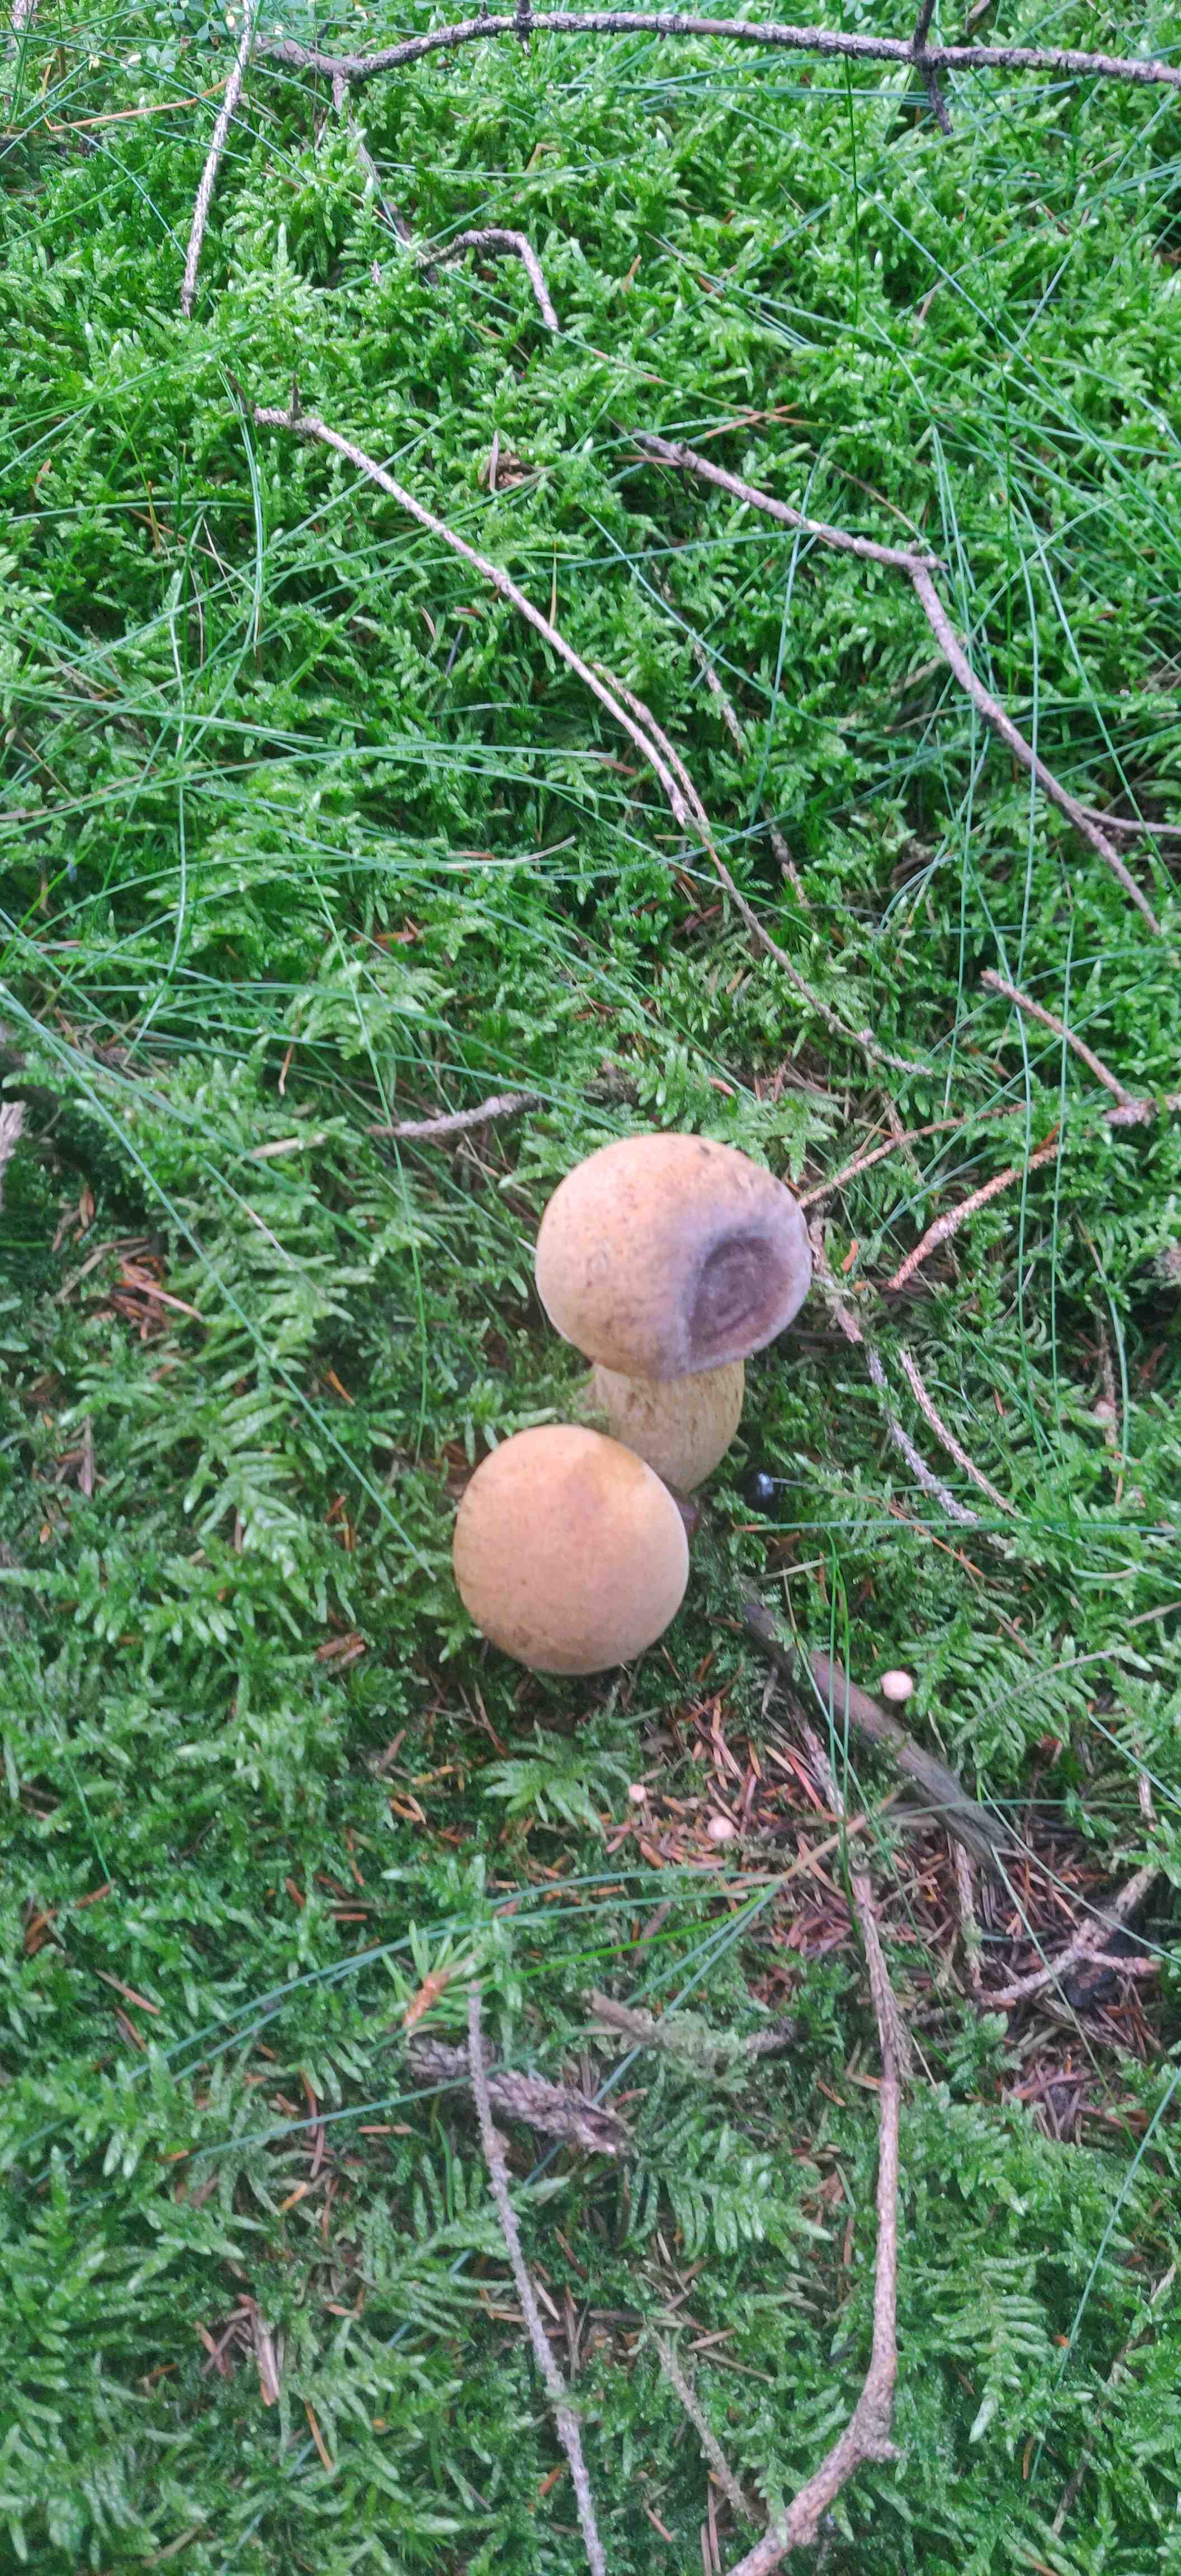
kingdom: Fungi
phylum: Basidiomycota
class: Agaricomycetes
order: Boletales
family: Boletaceae
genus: Tylopilus
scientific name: Tylopilus felleus
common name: galderørhat
